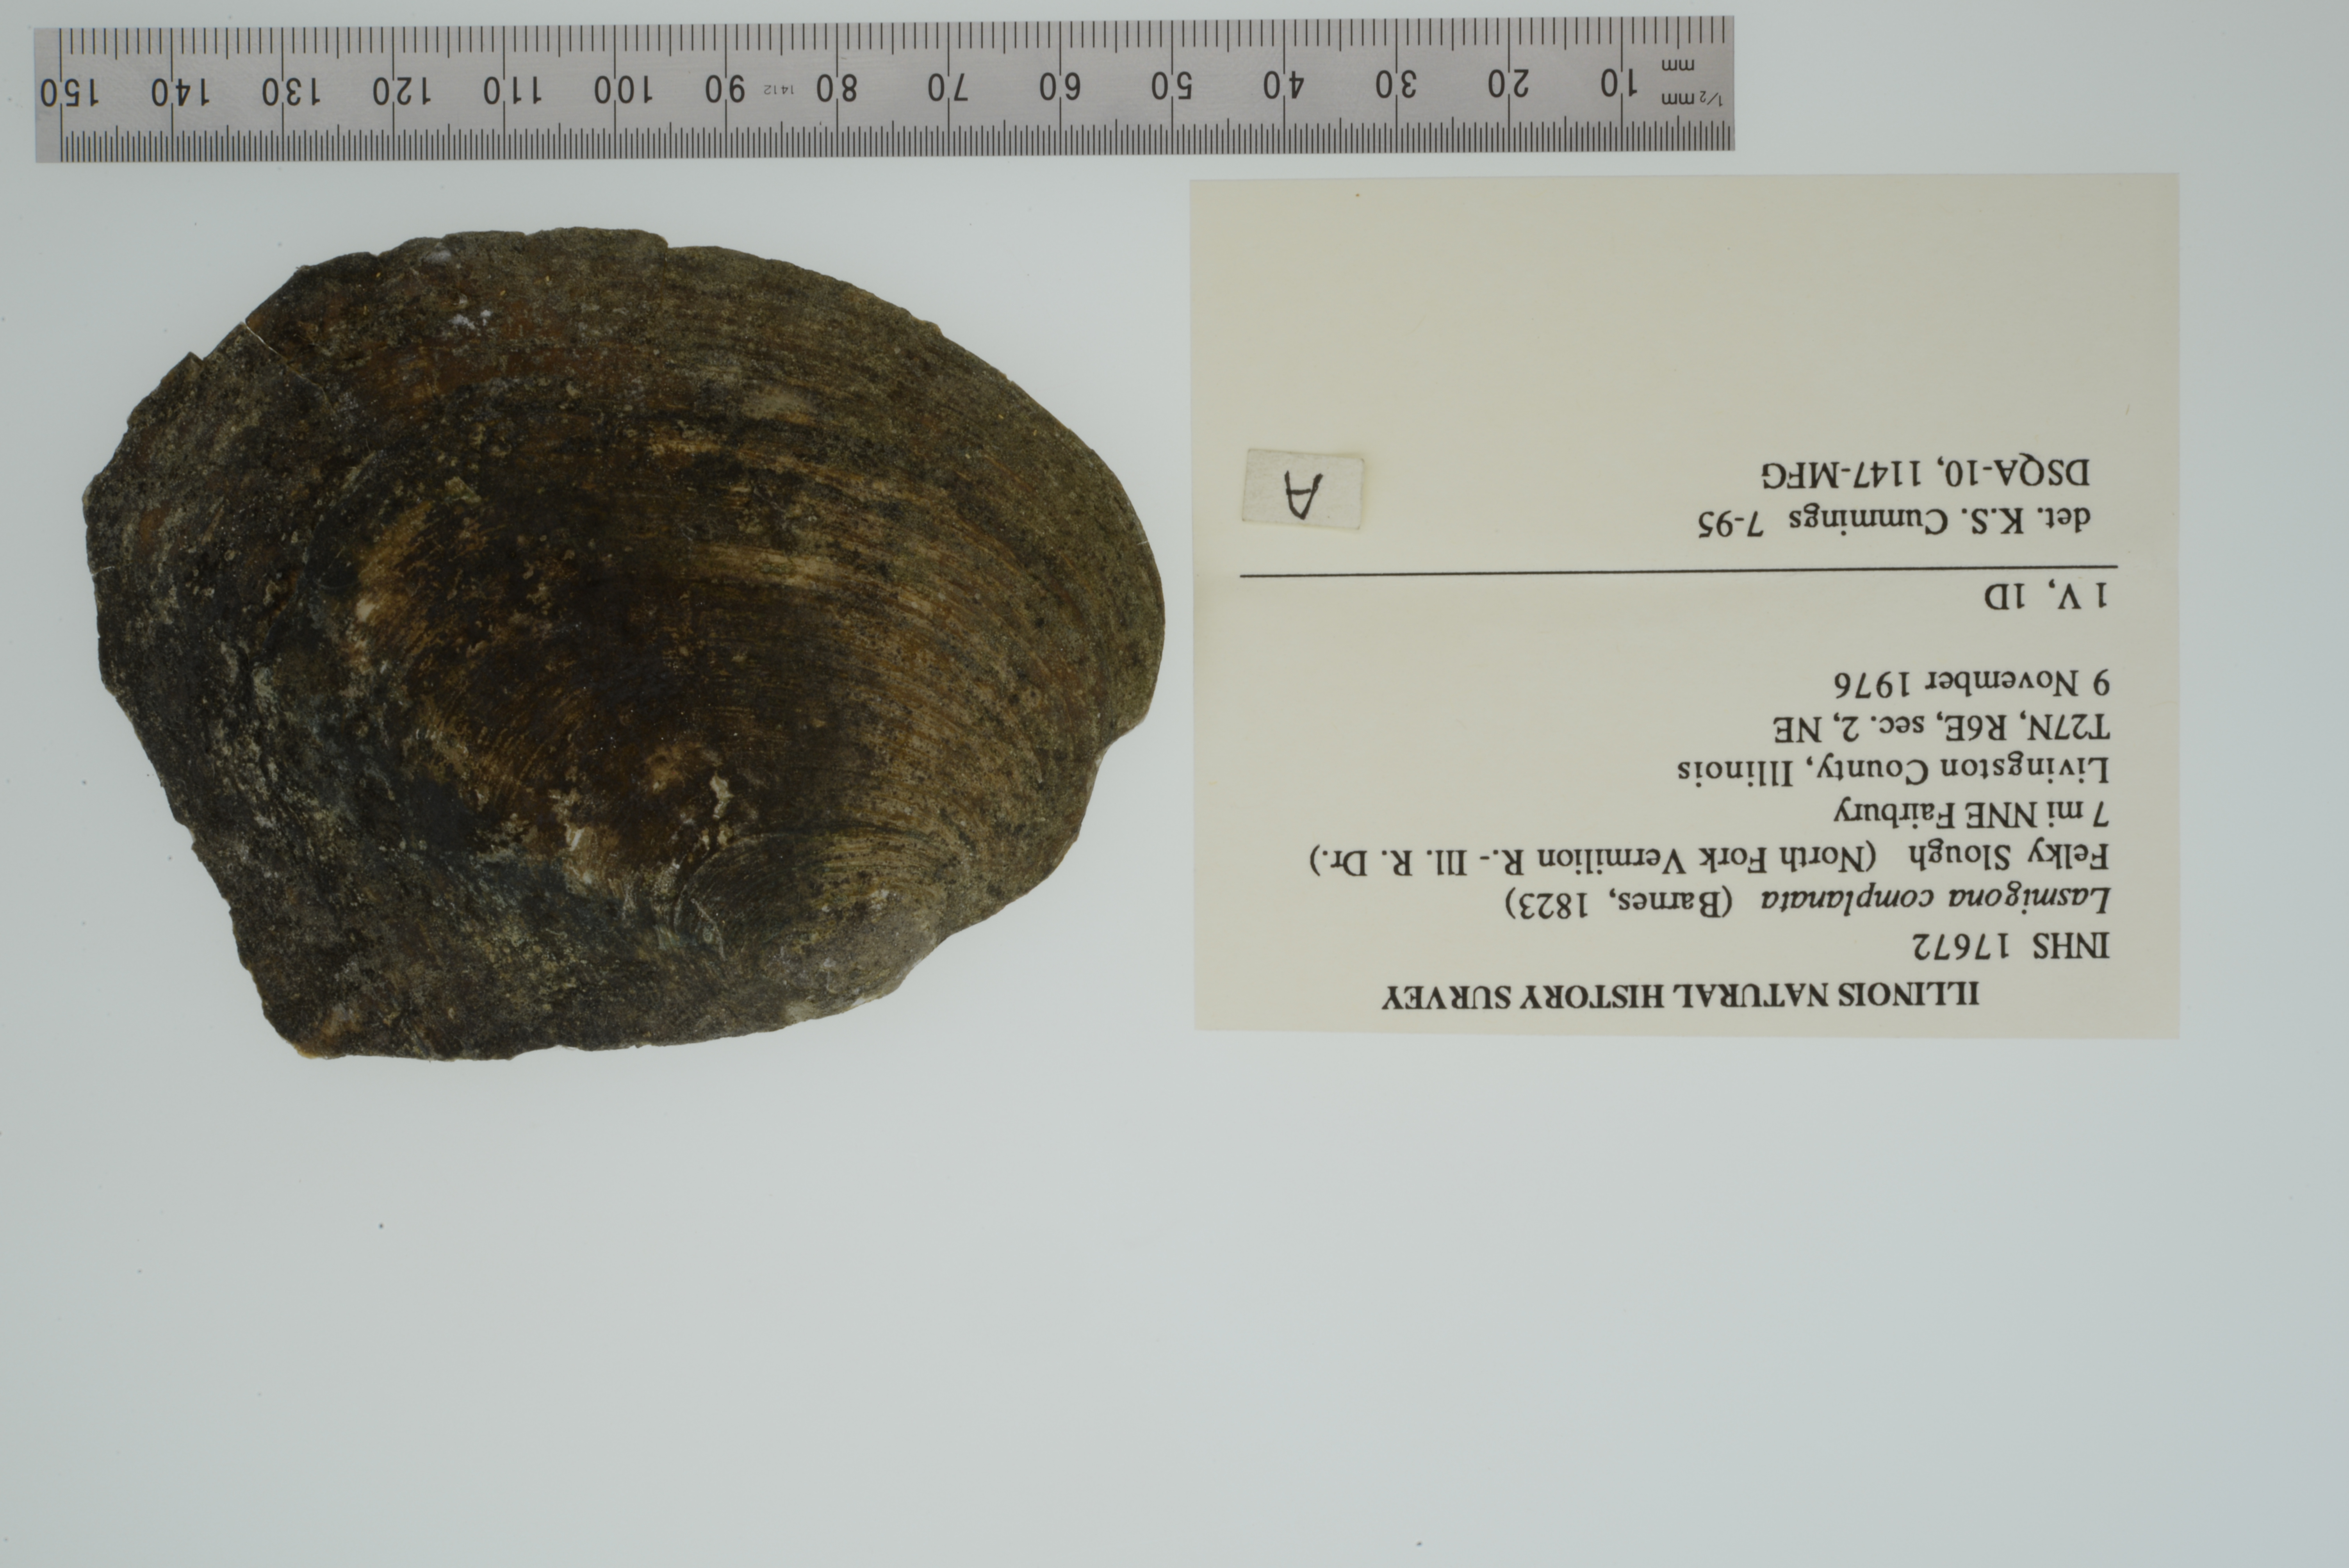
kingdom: Animalia
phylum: Mollusca
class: Bivalvia
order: Unionida
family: Unionidae
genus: Lasmigona
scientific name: Lasmigona complanata
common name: White heelsplitter
